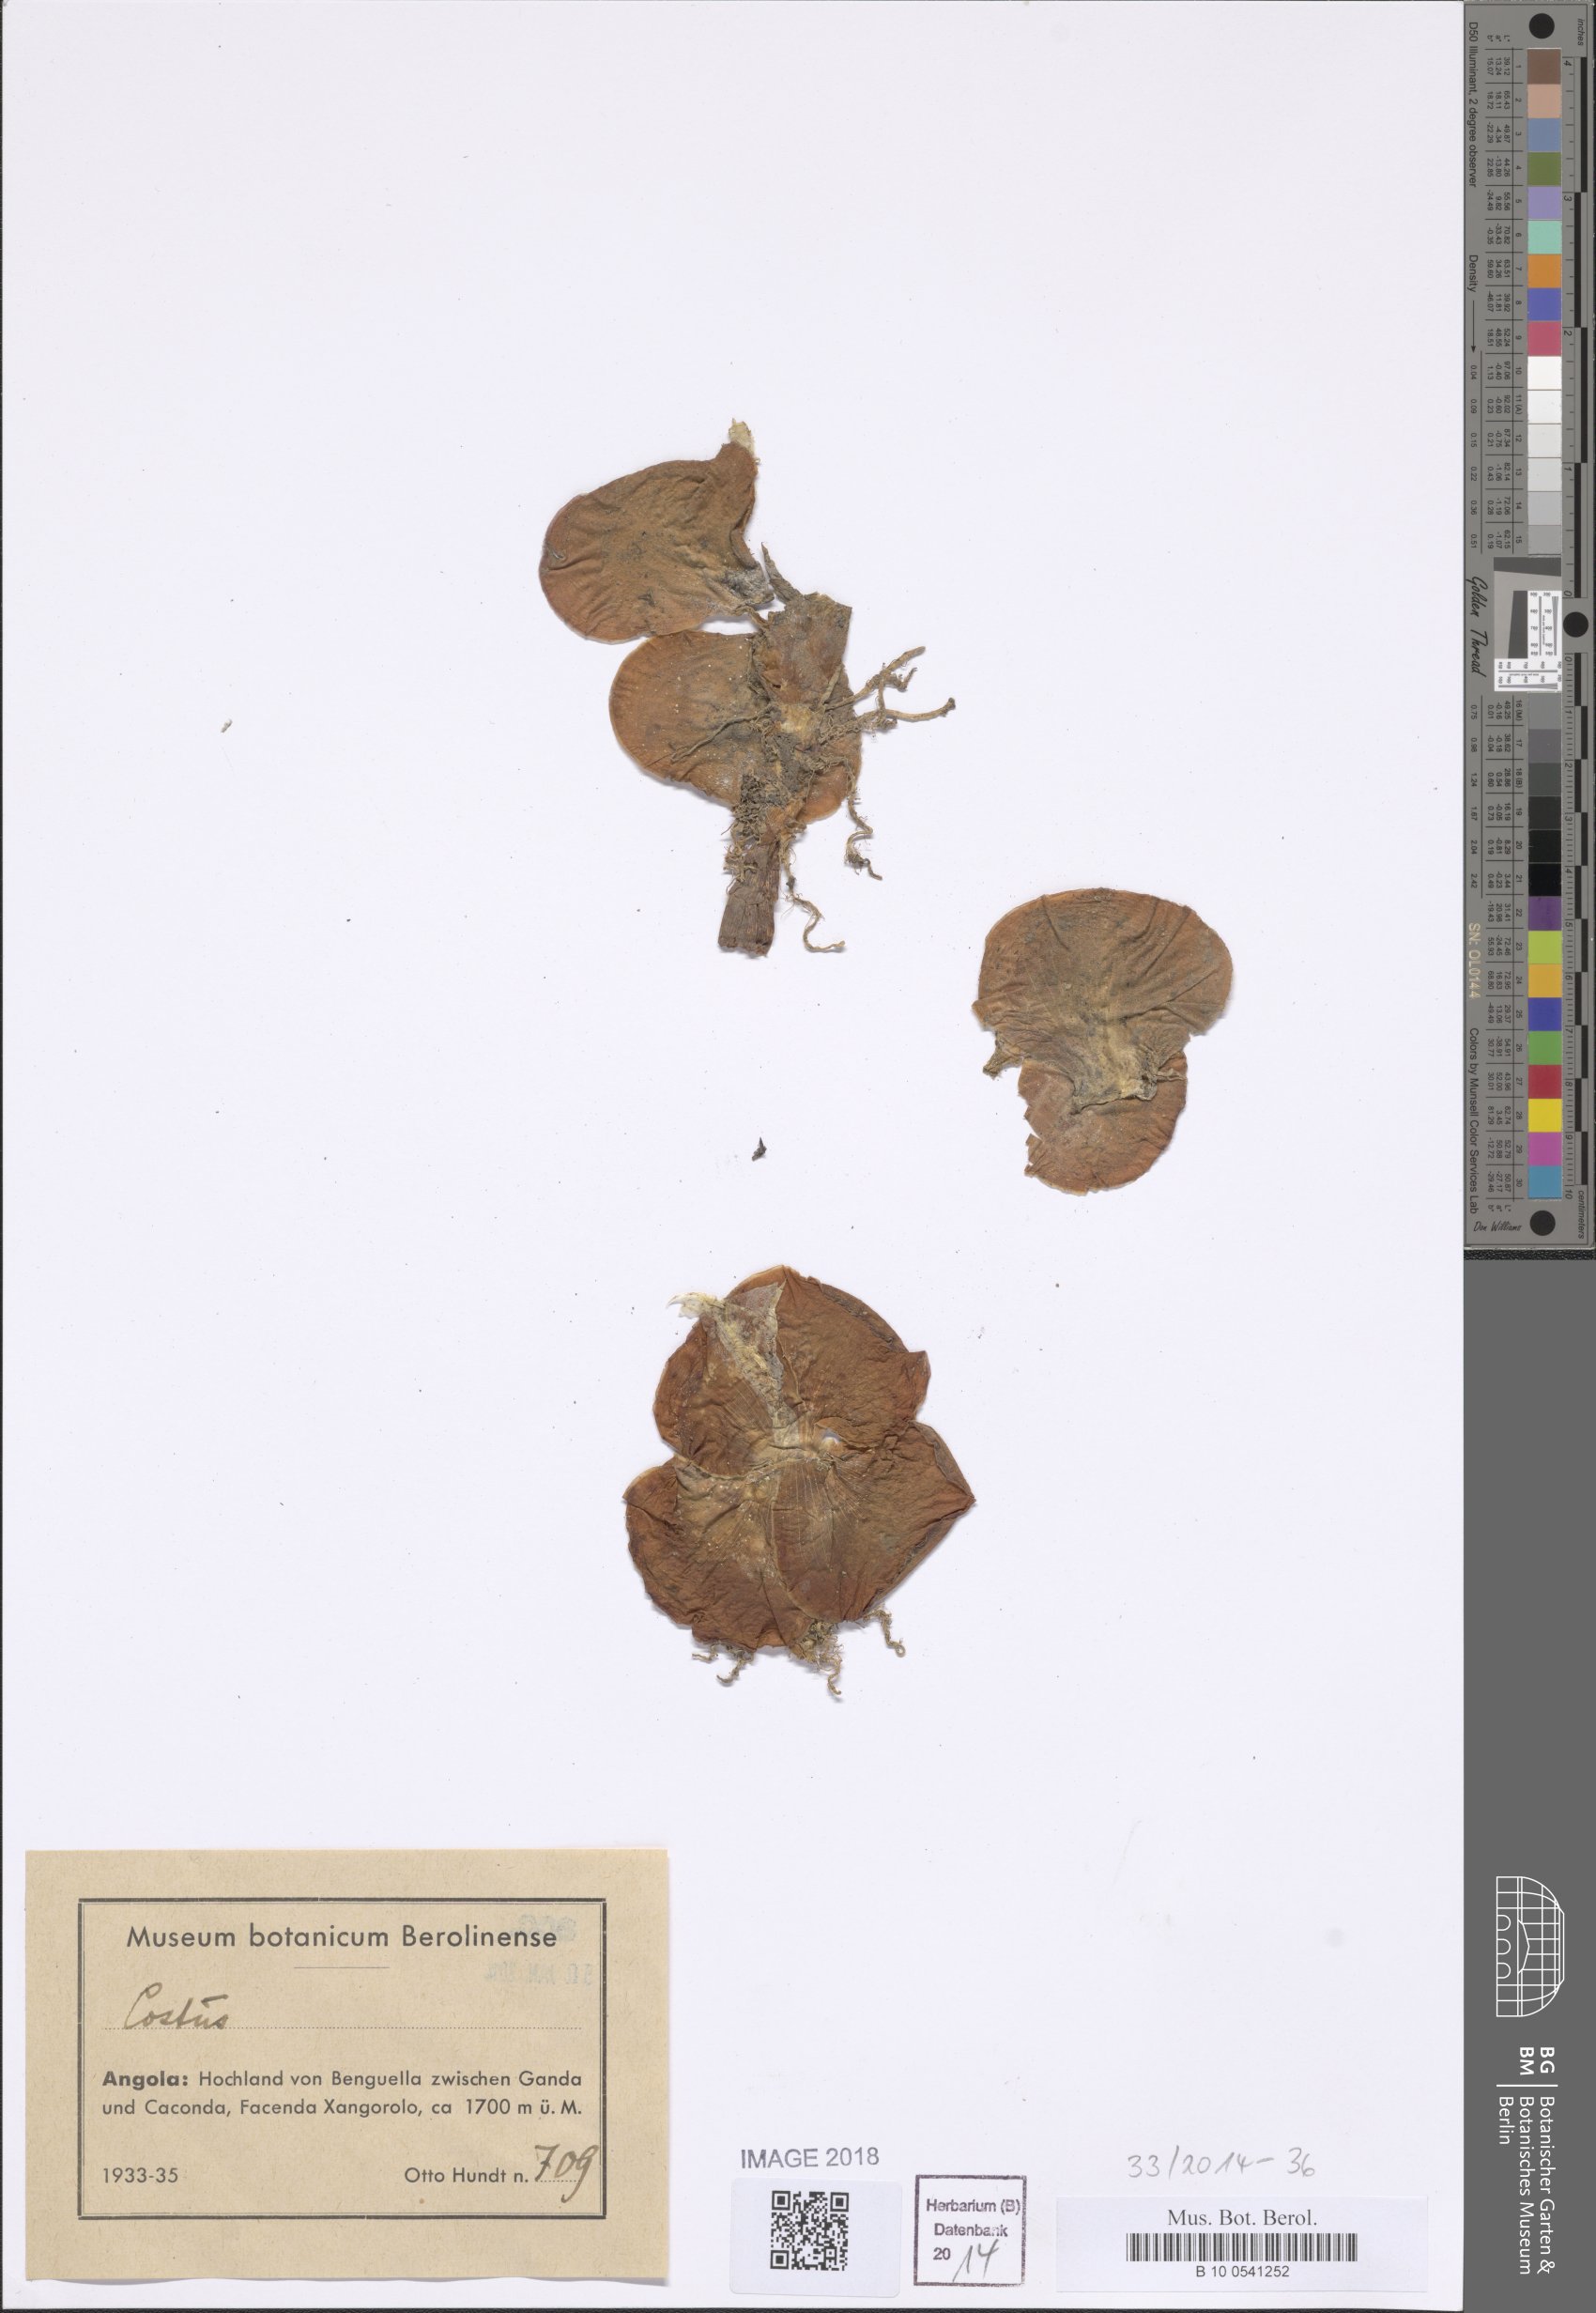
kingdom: Plantae
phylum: Tracheophyta
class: Liliopsida
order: Zingiberales
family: Costaceae
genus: Costus
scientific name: Costus
